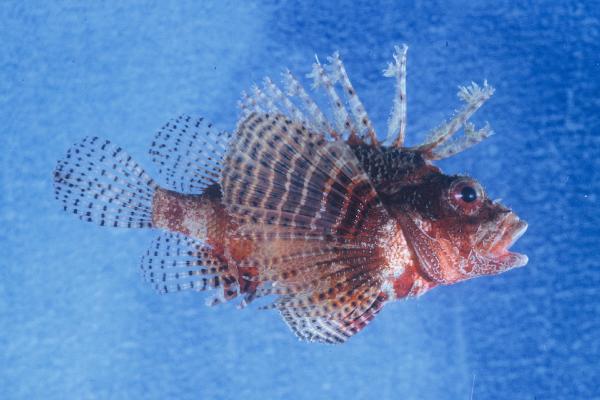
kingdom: Animalia
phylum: Chordata
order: Scorpaeniformes
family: Scorpaenidae
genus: Dendrochirus
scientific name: Dendrochirus hemprichi
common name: Red sea dwarf lionfish
